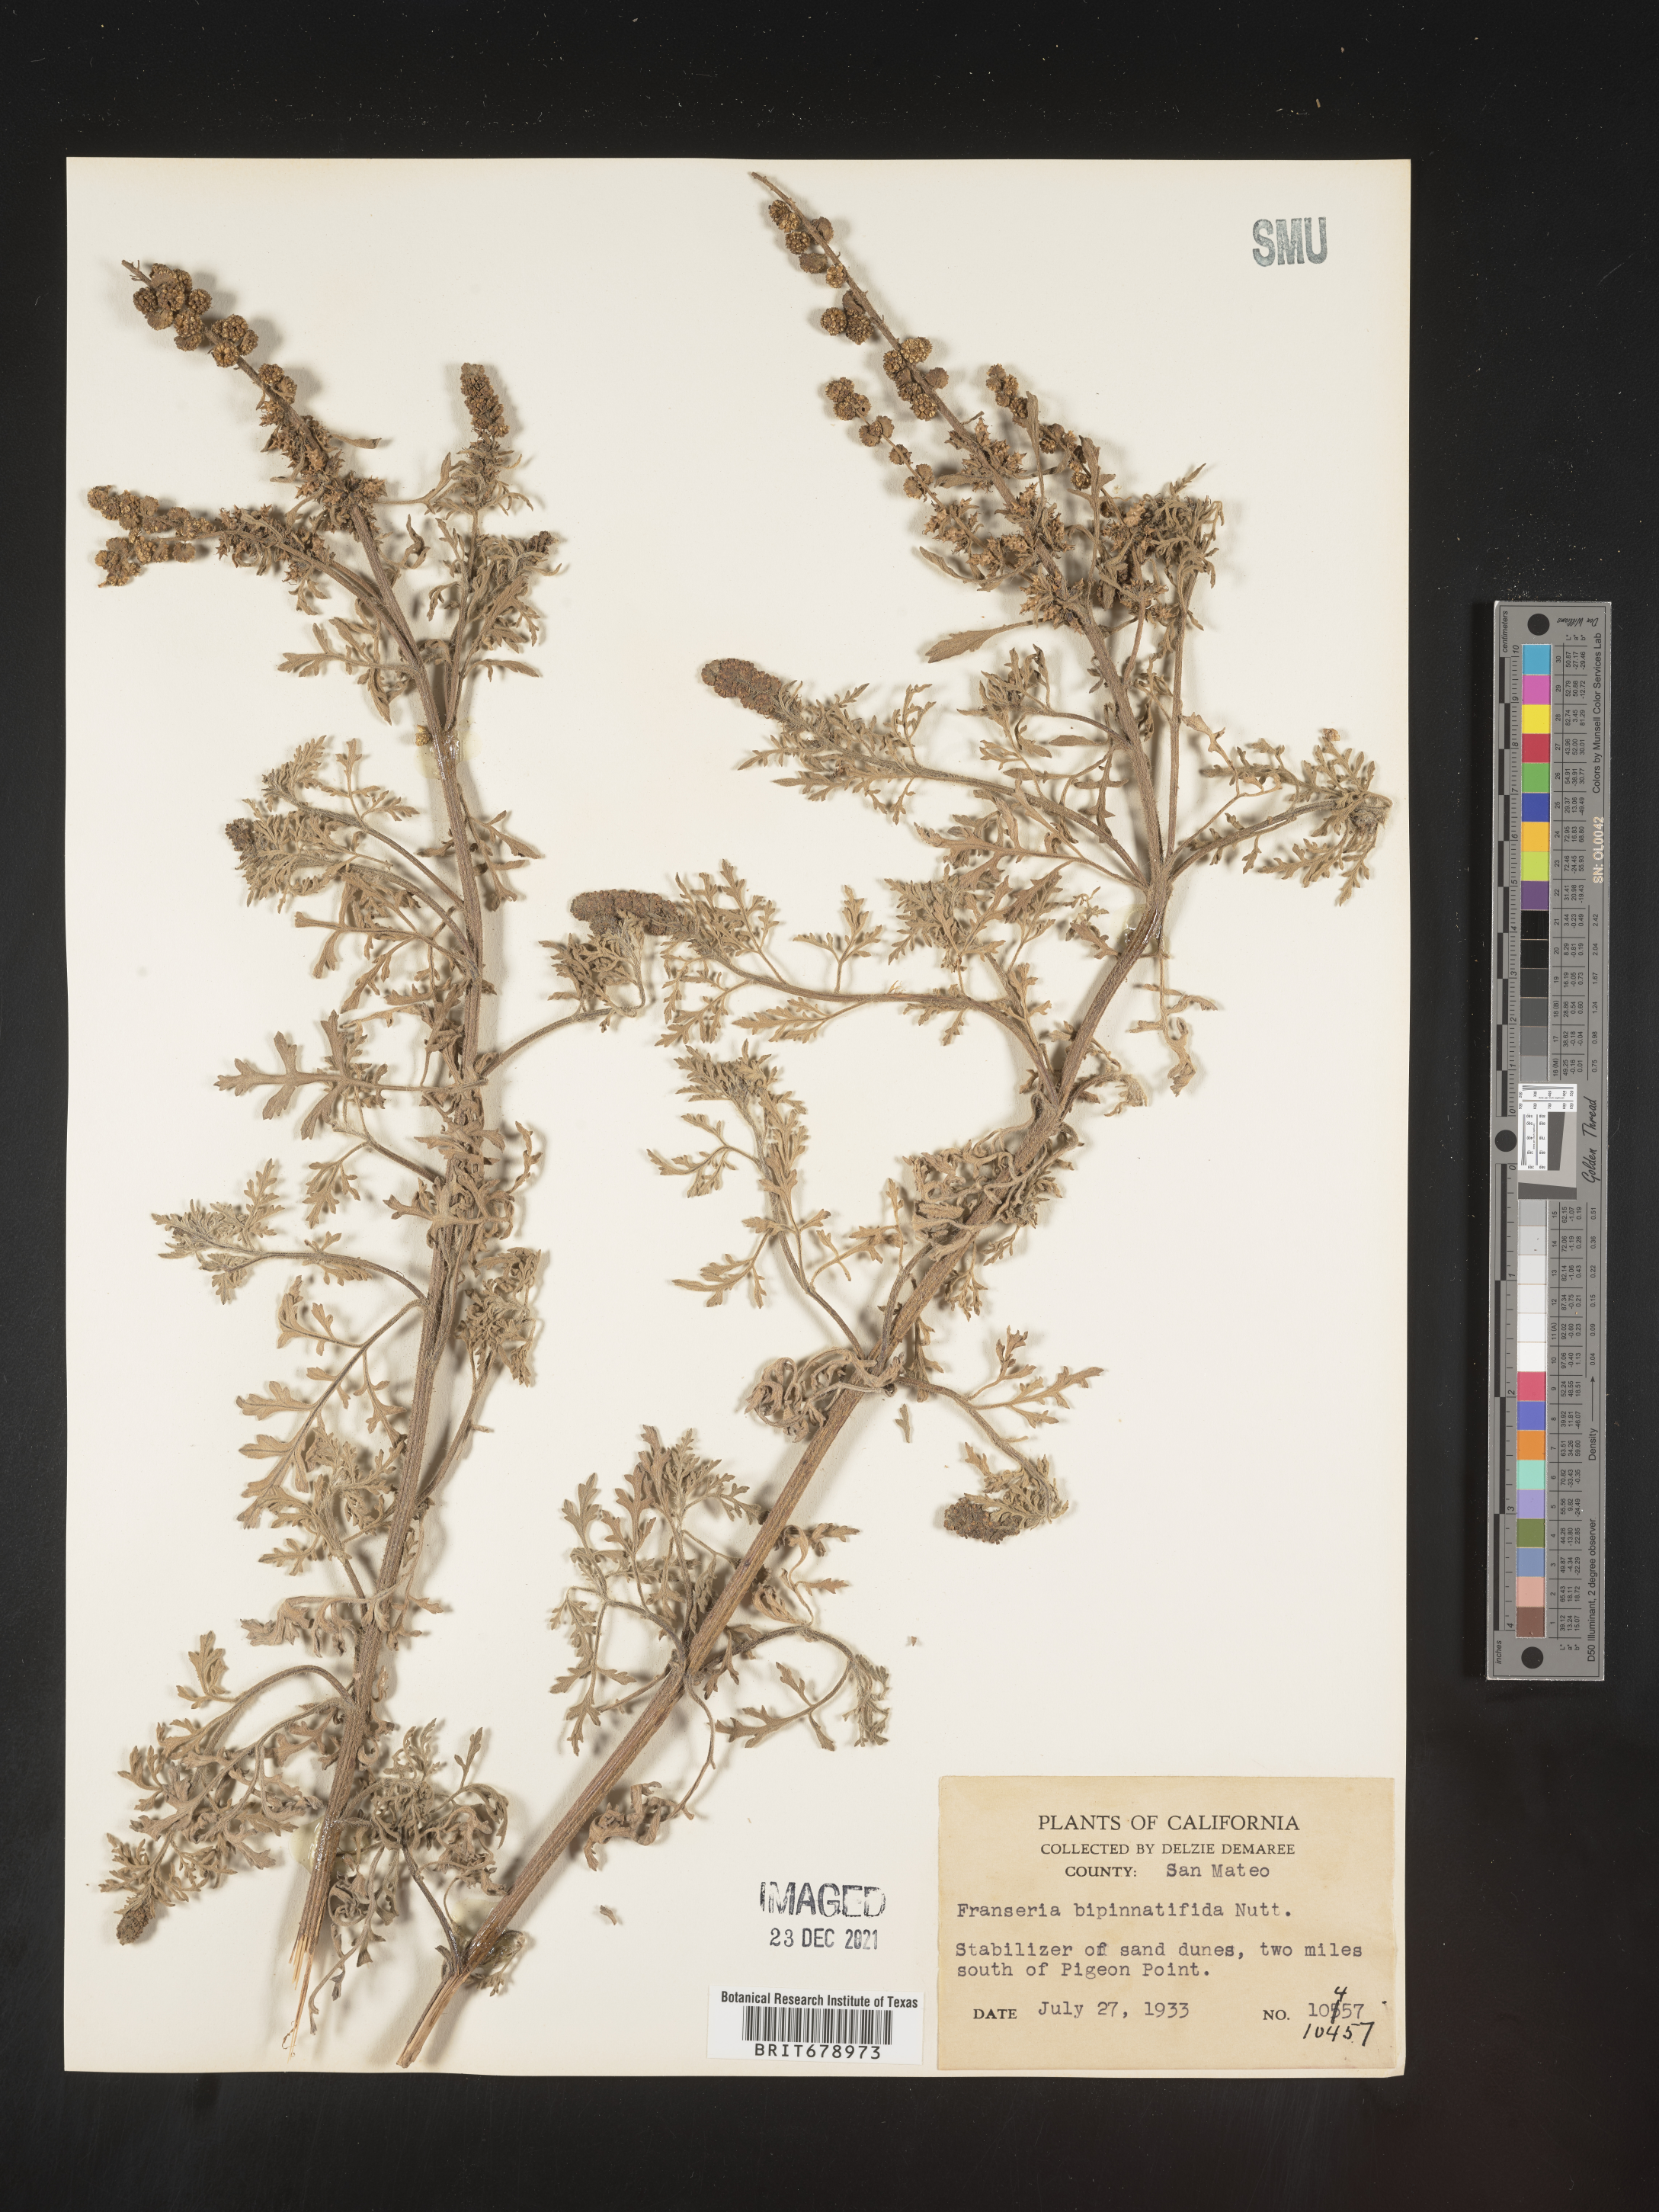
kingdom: Plantae
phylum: Tracheophyta
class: Magnoliopsida
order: Asterales
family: Asteraceae
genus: Ambrosia
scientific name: Ambrosia camphorata
